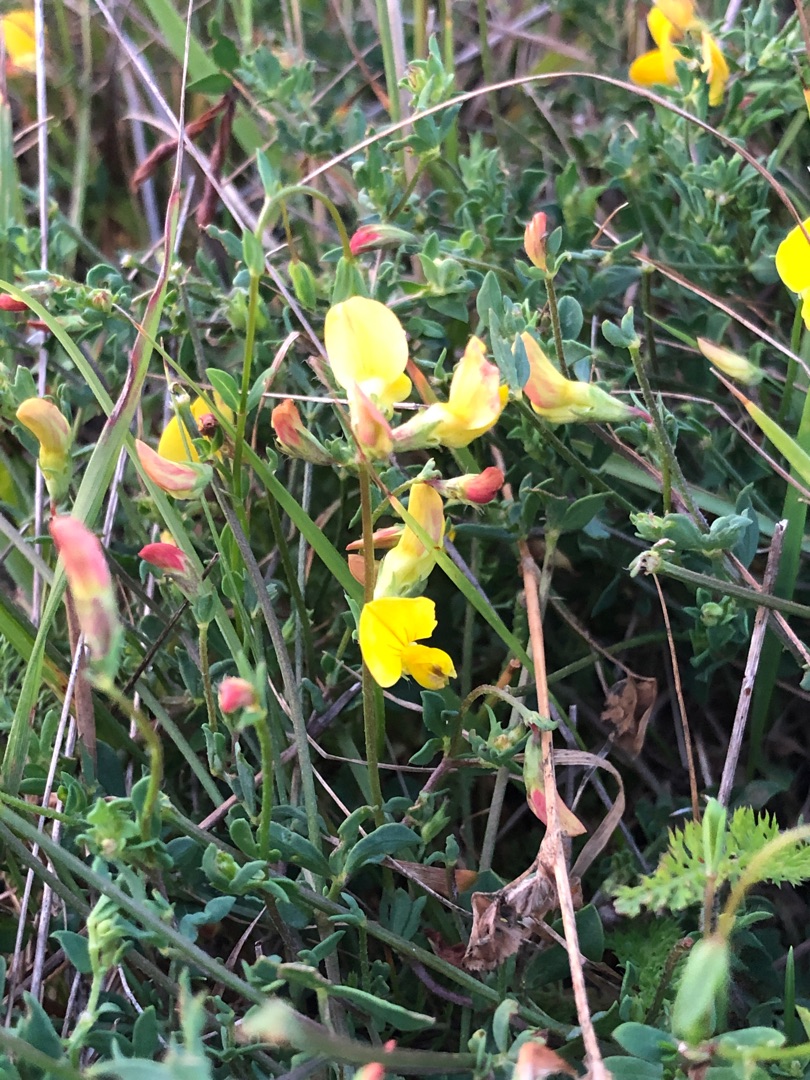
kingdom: Plantae
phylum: Tracheophyta
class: Magnoliopsida
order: Fabales
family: Fabaceae
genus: Lotus
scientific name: Lotus corniculatus
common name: Almindelig kællingetand
